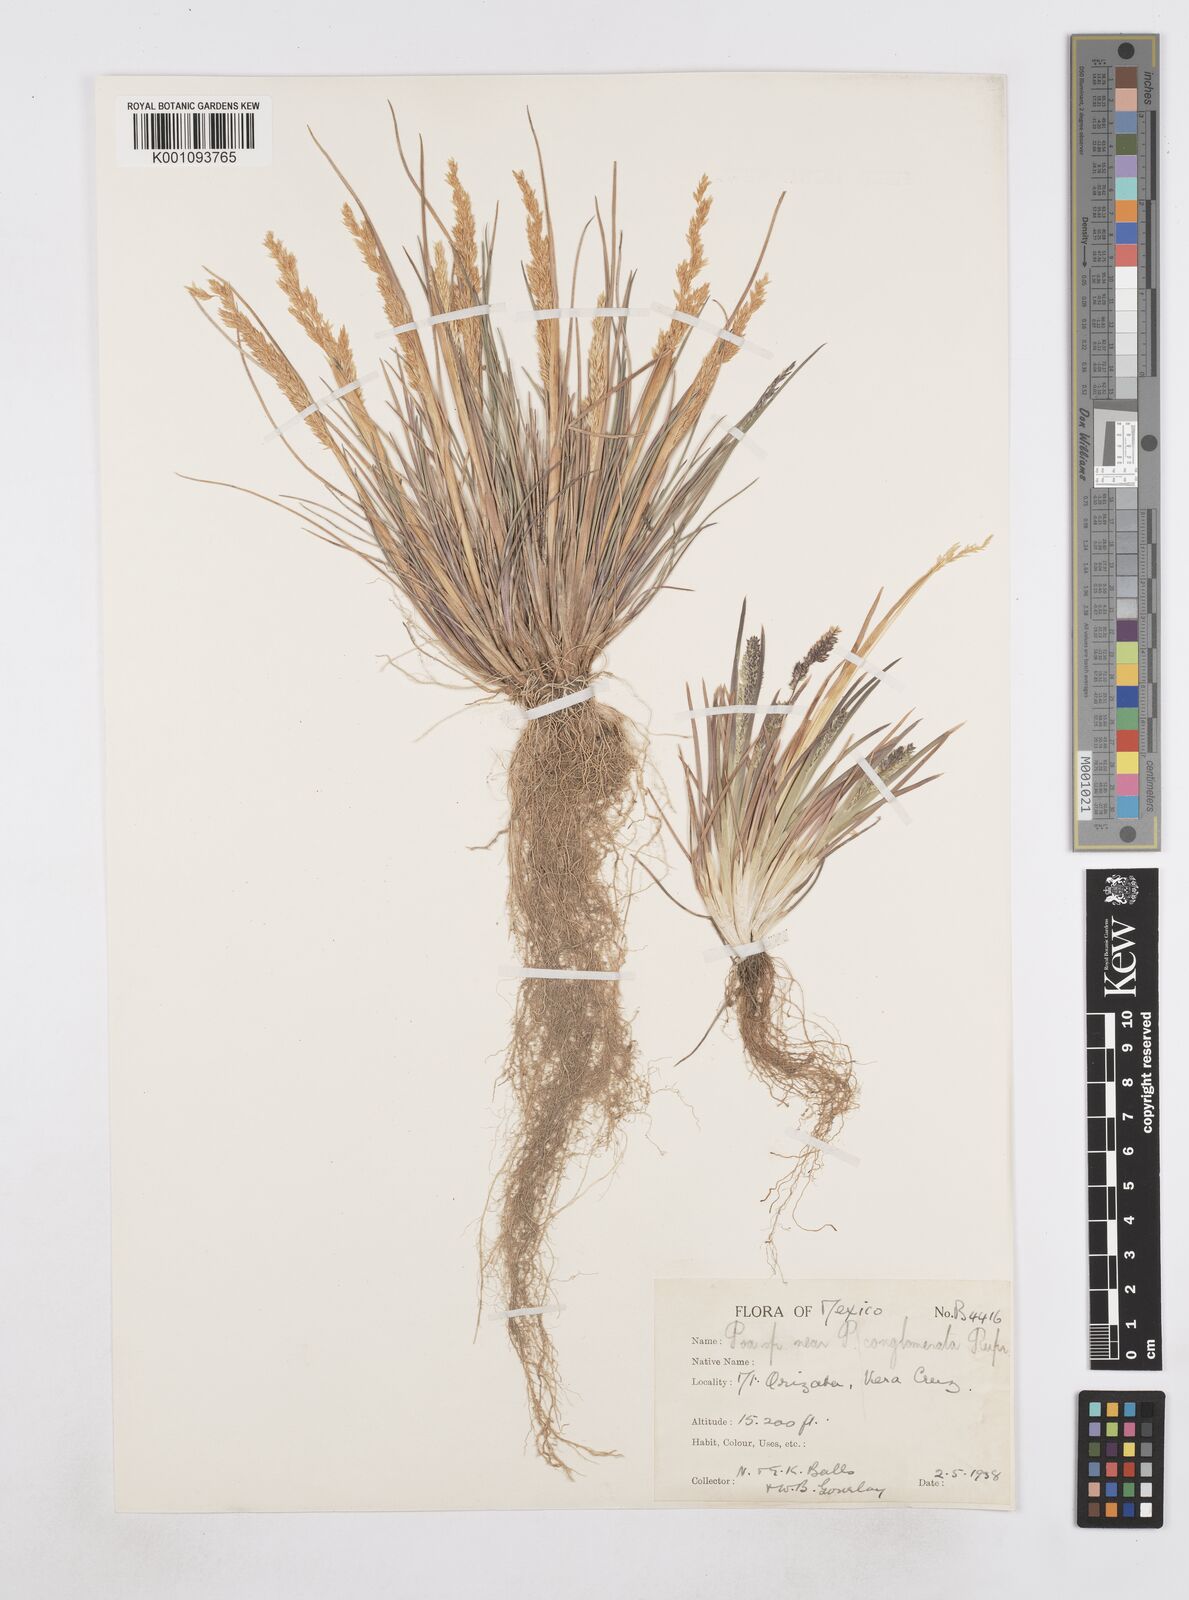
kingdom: Plantae
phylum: Tracheophyta
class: Liliopsida
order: Poales
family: Poaceae
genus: Poa
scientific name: Poa scaberula
